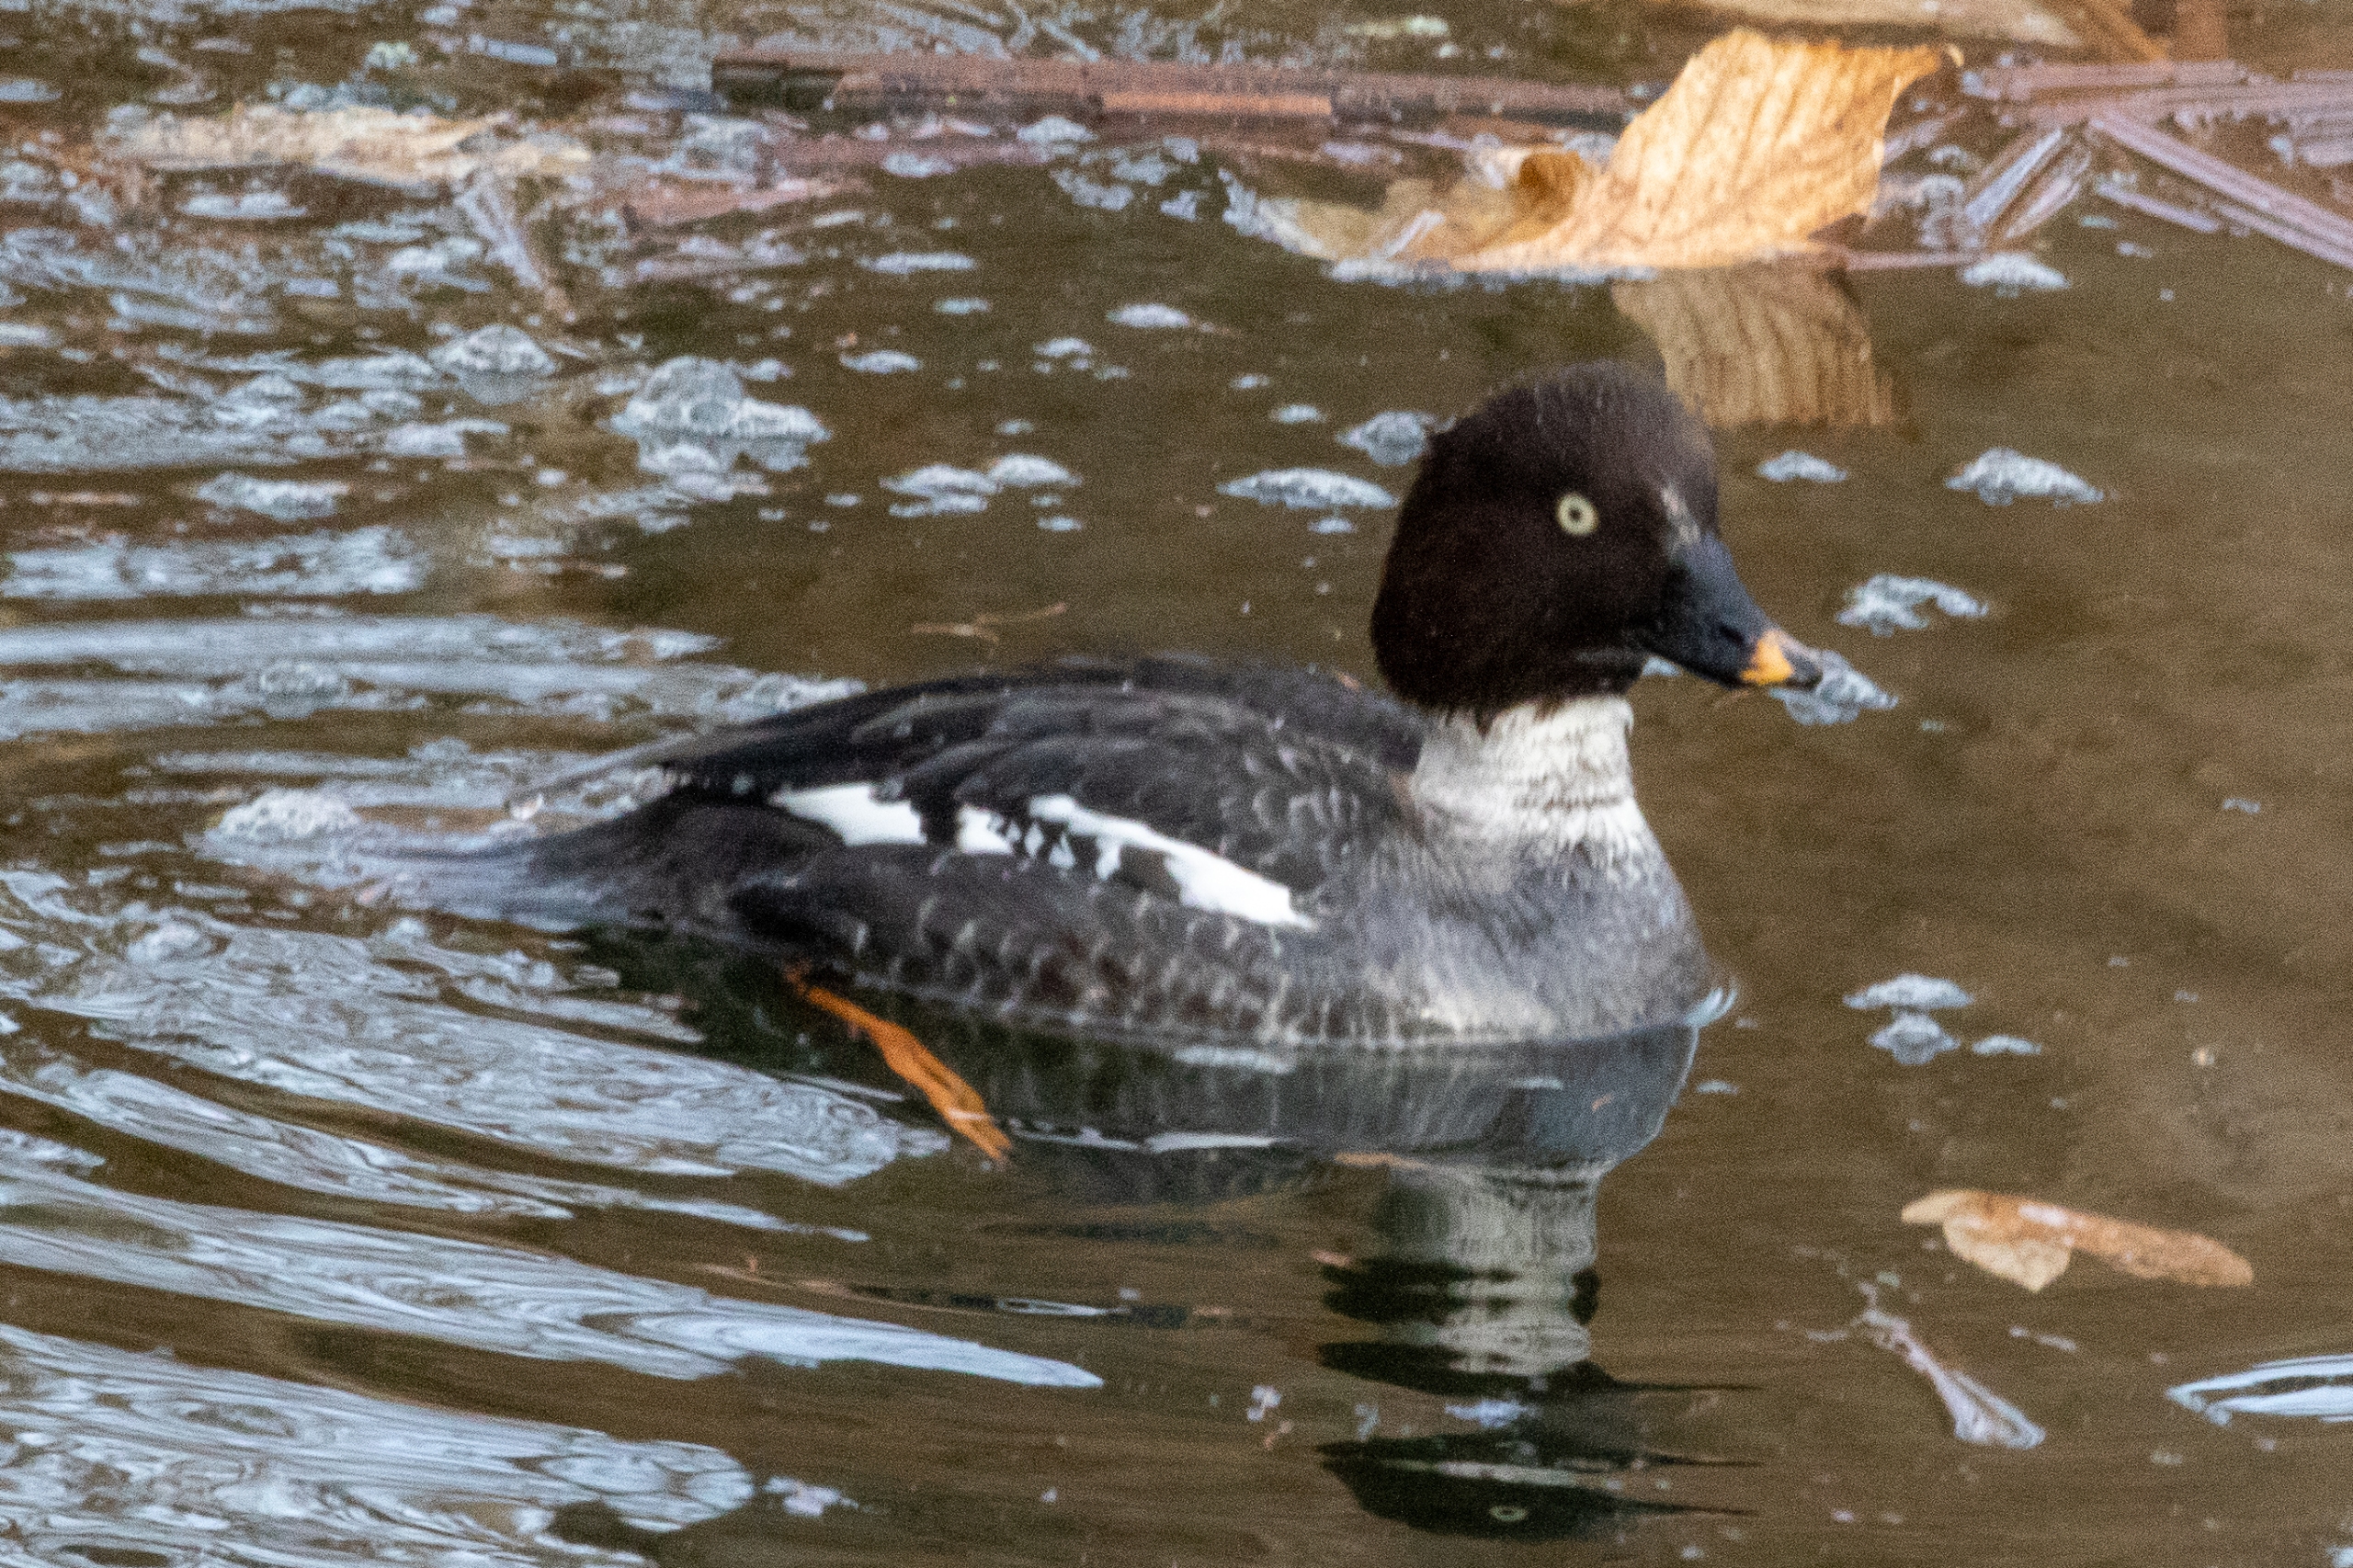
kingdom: Animalia
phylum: Chordata
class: Aves
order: Anseriformes
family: Anatidae
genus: Bucephala
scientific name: Bucephala clangula
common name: Hvinand
